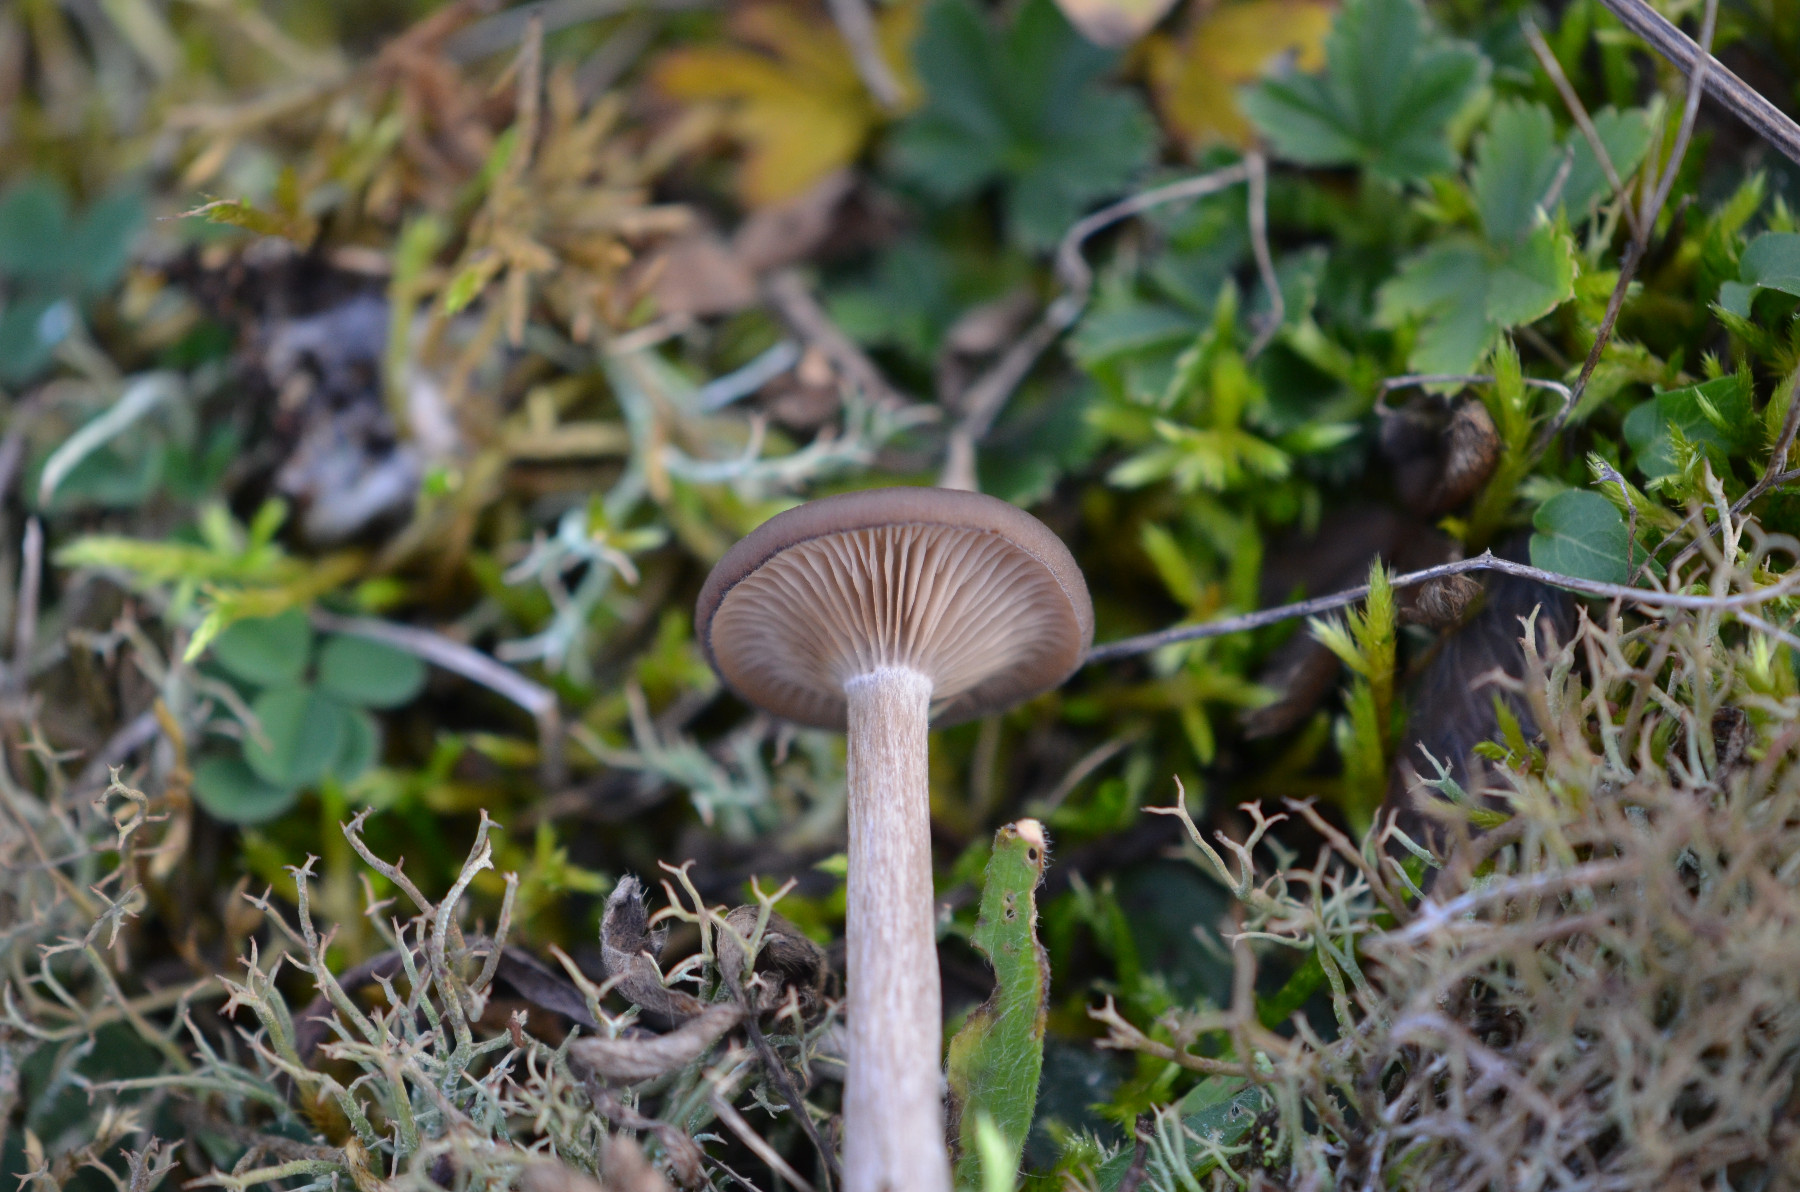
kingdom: Fungi
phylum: Basidiomycota
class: Agaricomycetes
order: Agaricales
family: Pseudoclitocybaceae
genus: Pseudoclitocybe
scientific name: Pseudoclitocybe expallens
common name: lille bægertragthat
